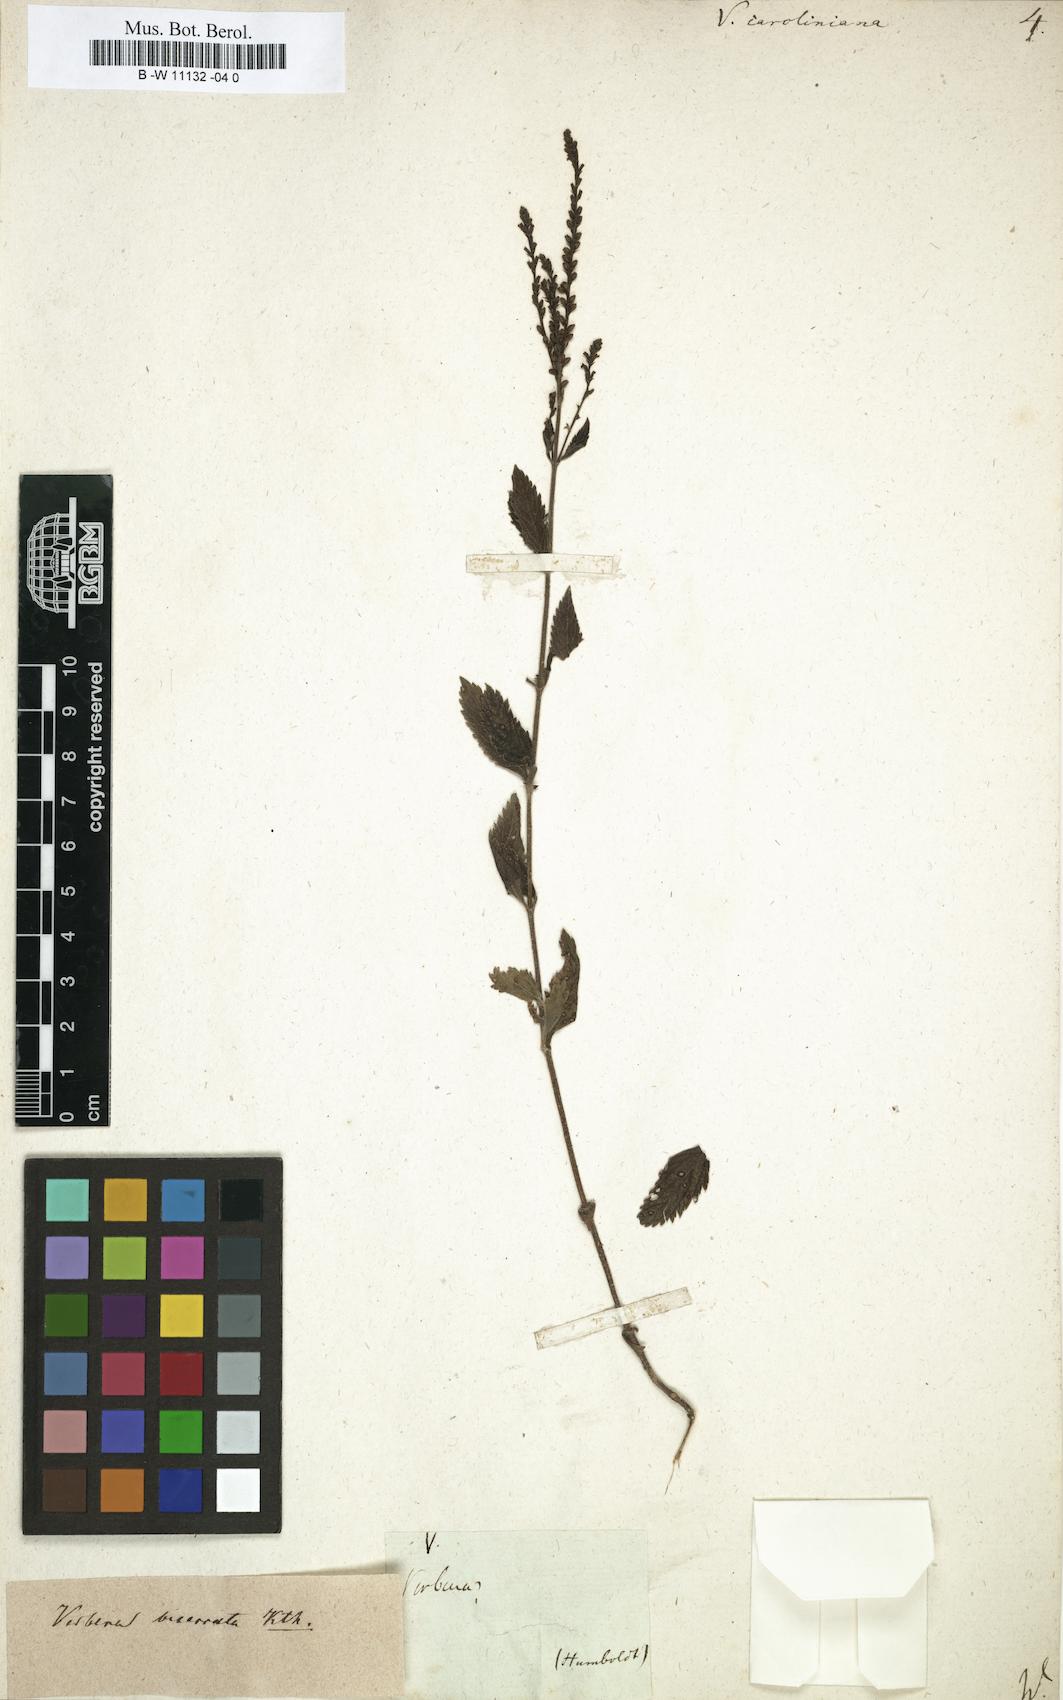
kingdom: Plantae
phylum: Tracheophyta
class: Magnoliopsida
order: Lamiales
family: Verbenaceae
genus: Verbena
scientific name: Verbena caroliniana
